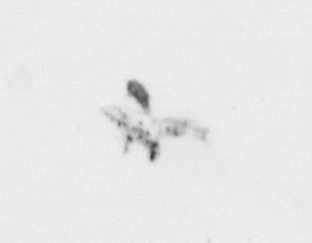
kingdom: Animalia
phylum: Arthropoda
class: Maxillopoda
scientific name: Maxillopoda
